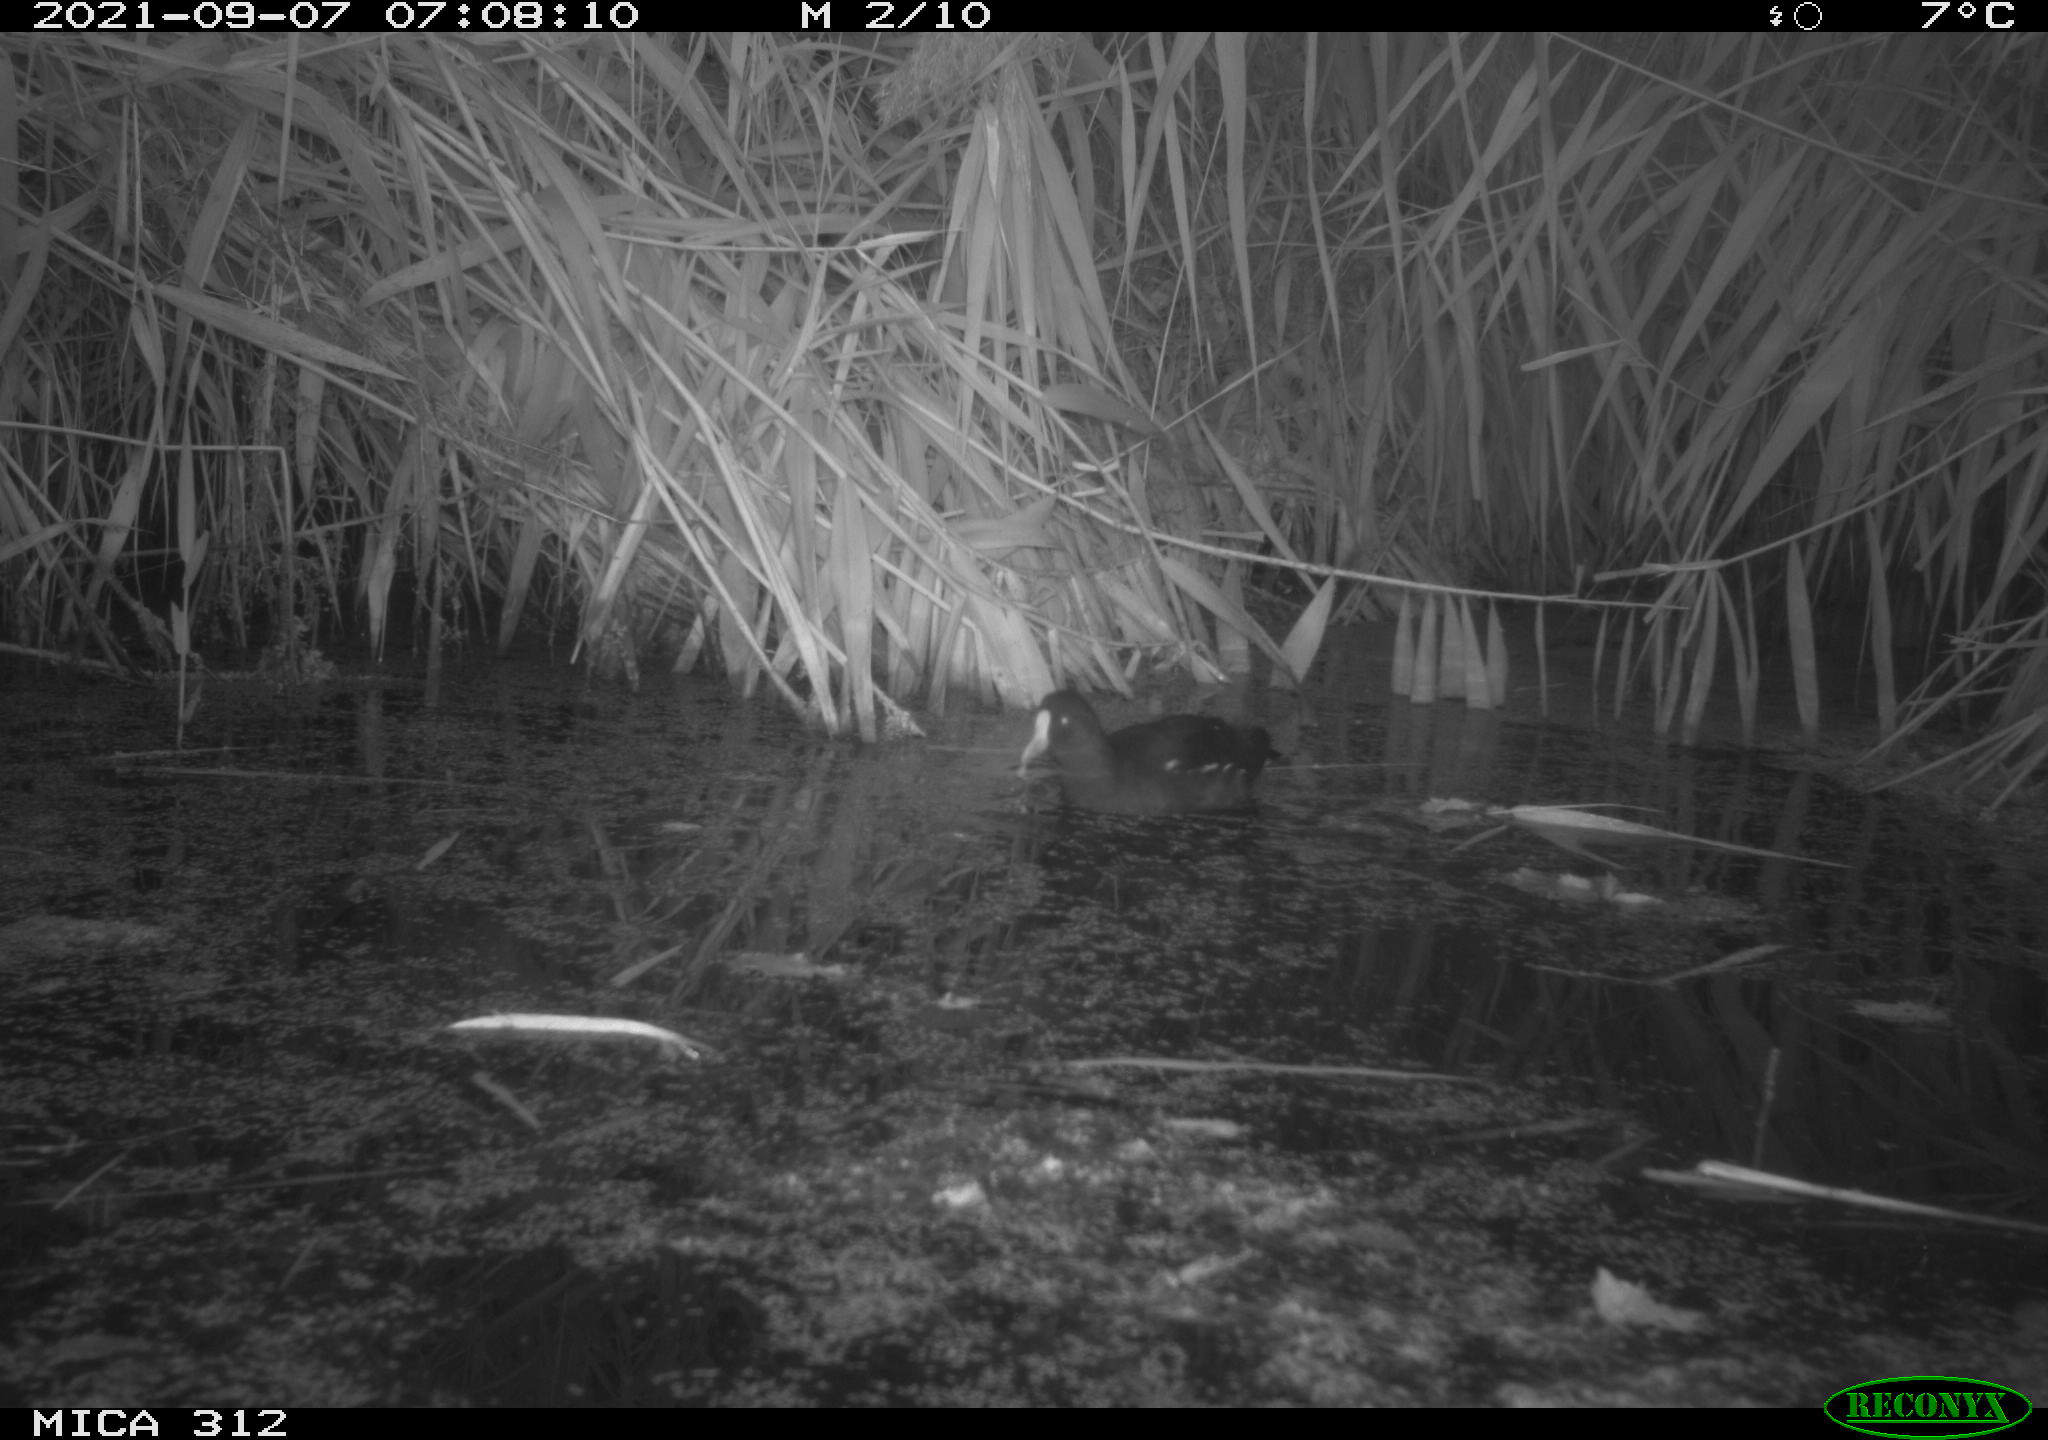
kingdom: Animalia
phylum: Chordata
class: Aves
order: Gruiformes
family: Rallidae
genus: Gallinula
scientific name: Gallinula chloropus
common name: Common moorhen
